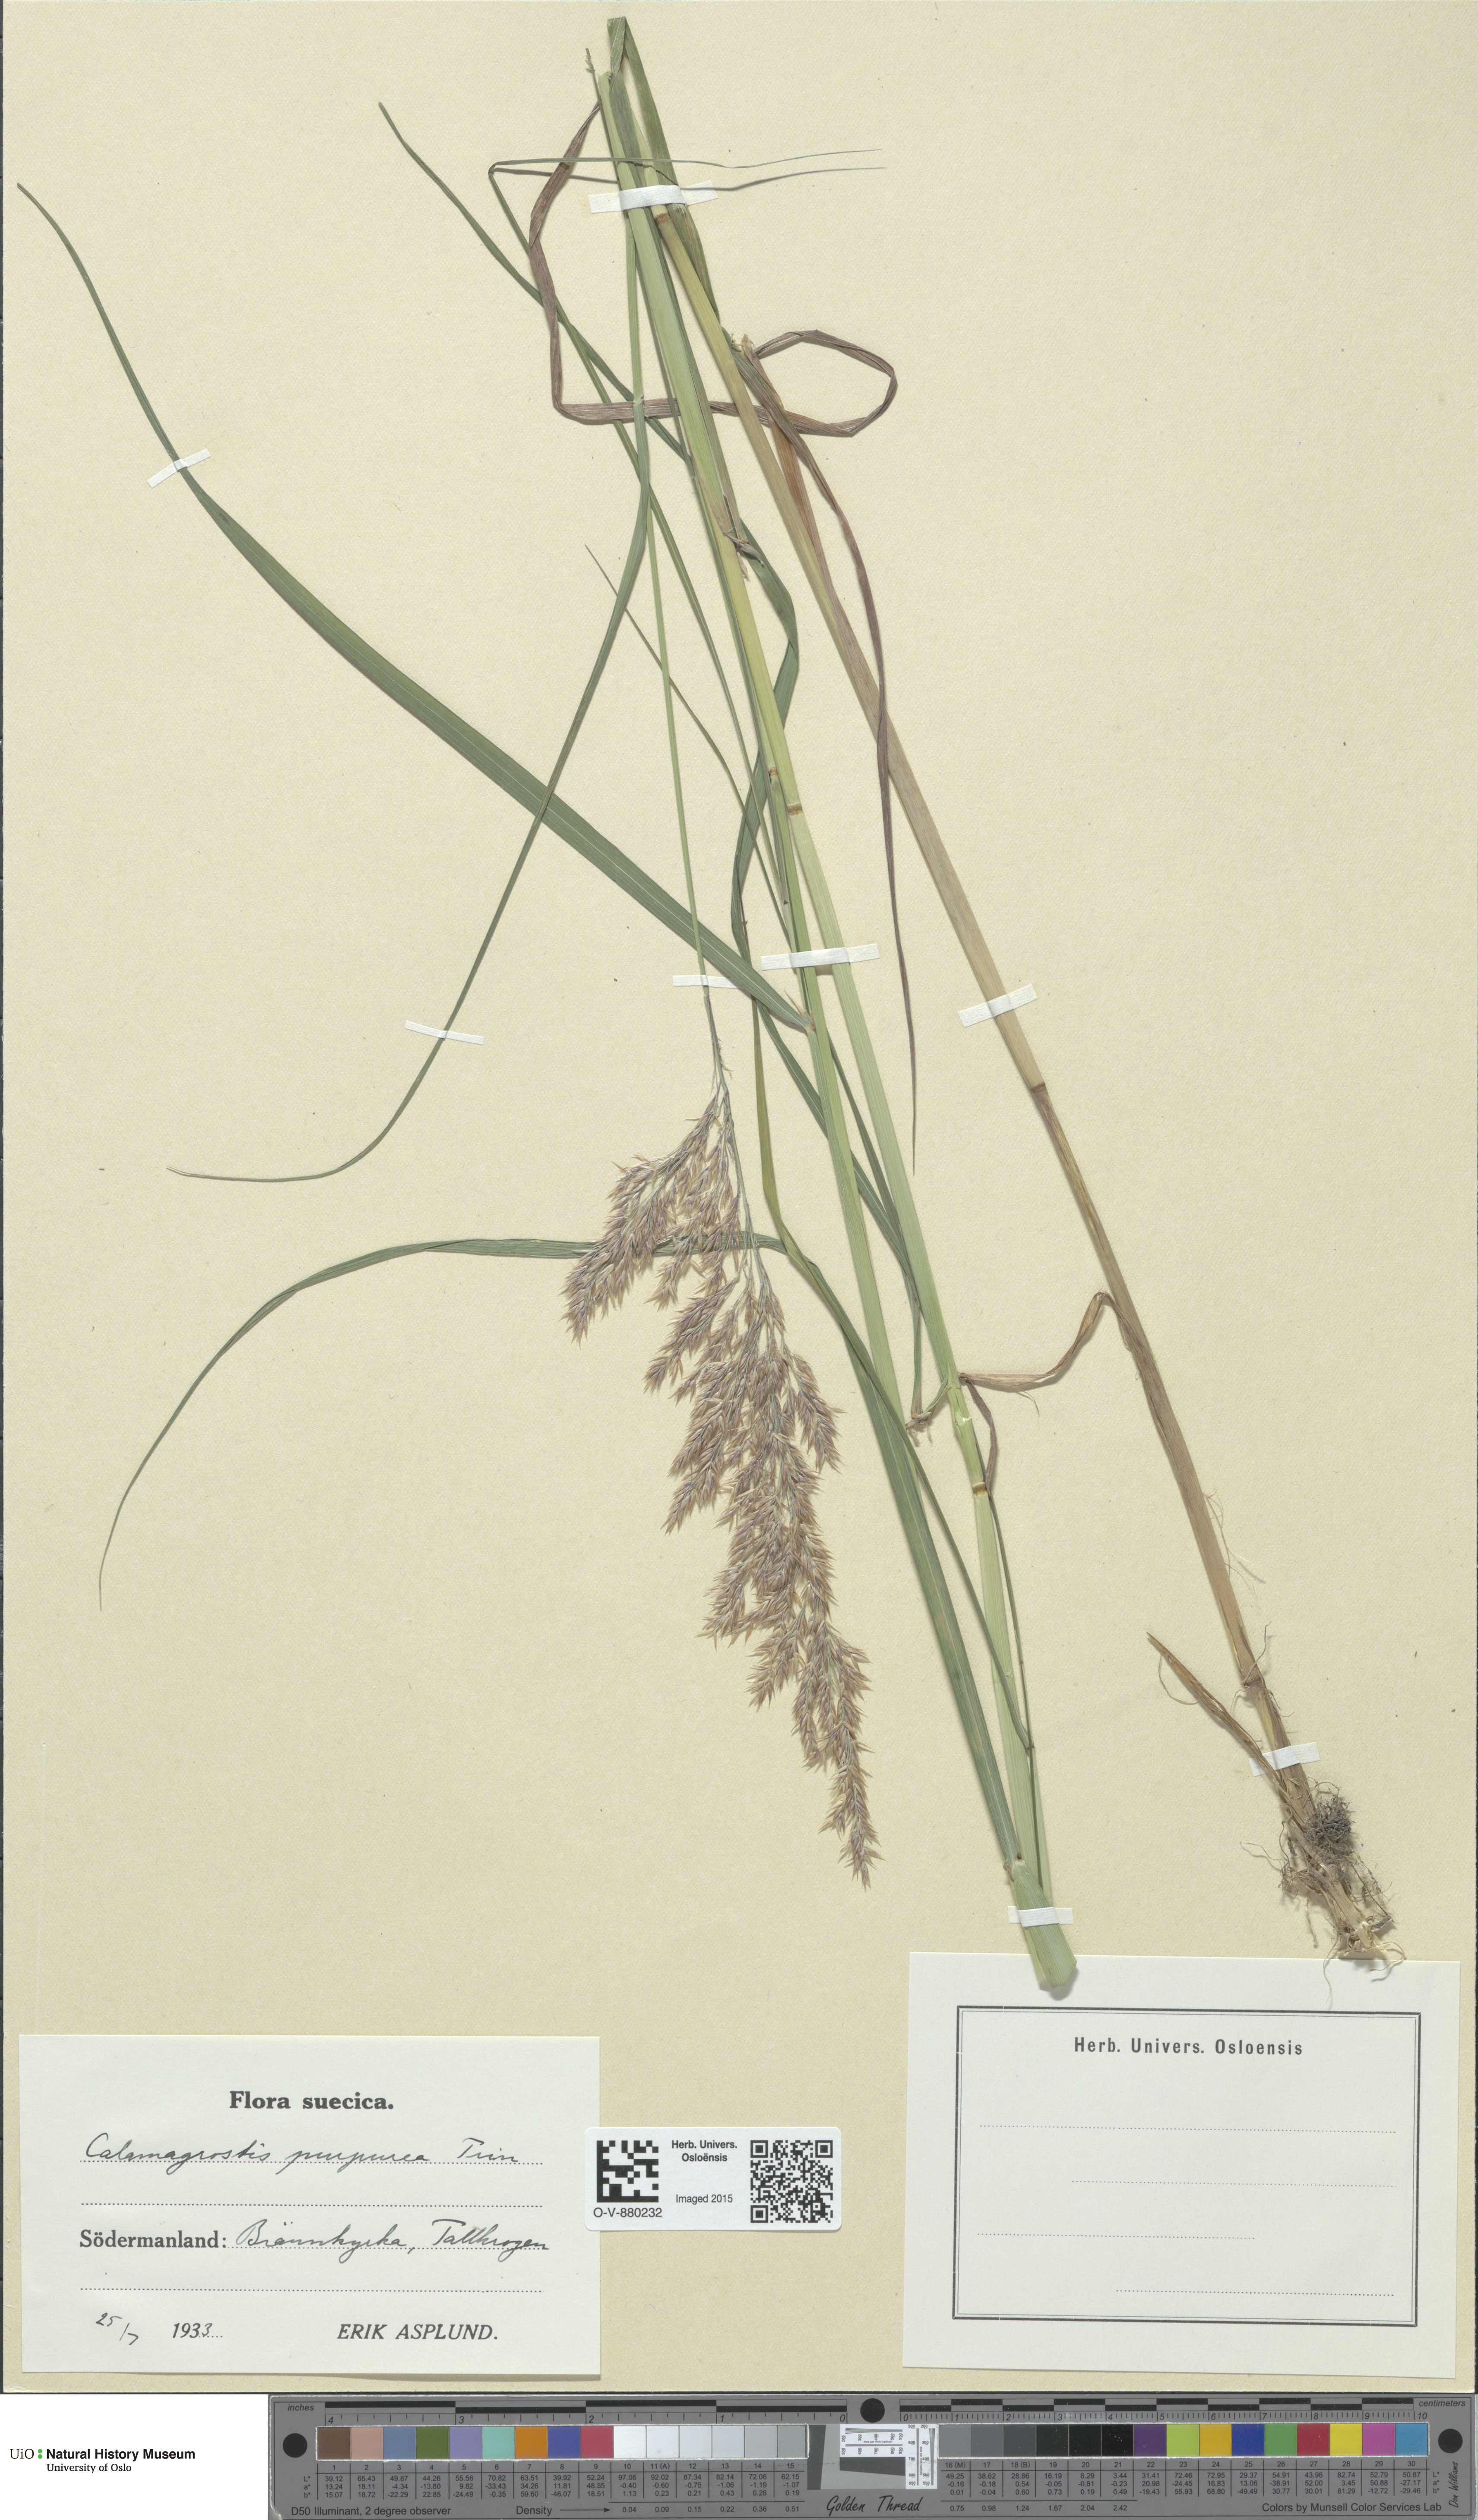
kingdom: Plantae
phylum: Tracheophyta
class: Liliopsida
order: Poales
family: Poaceae
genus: Calamagrostis
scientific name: Calamagrostis purpurea
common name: Scandinavian small-reed
